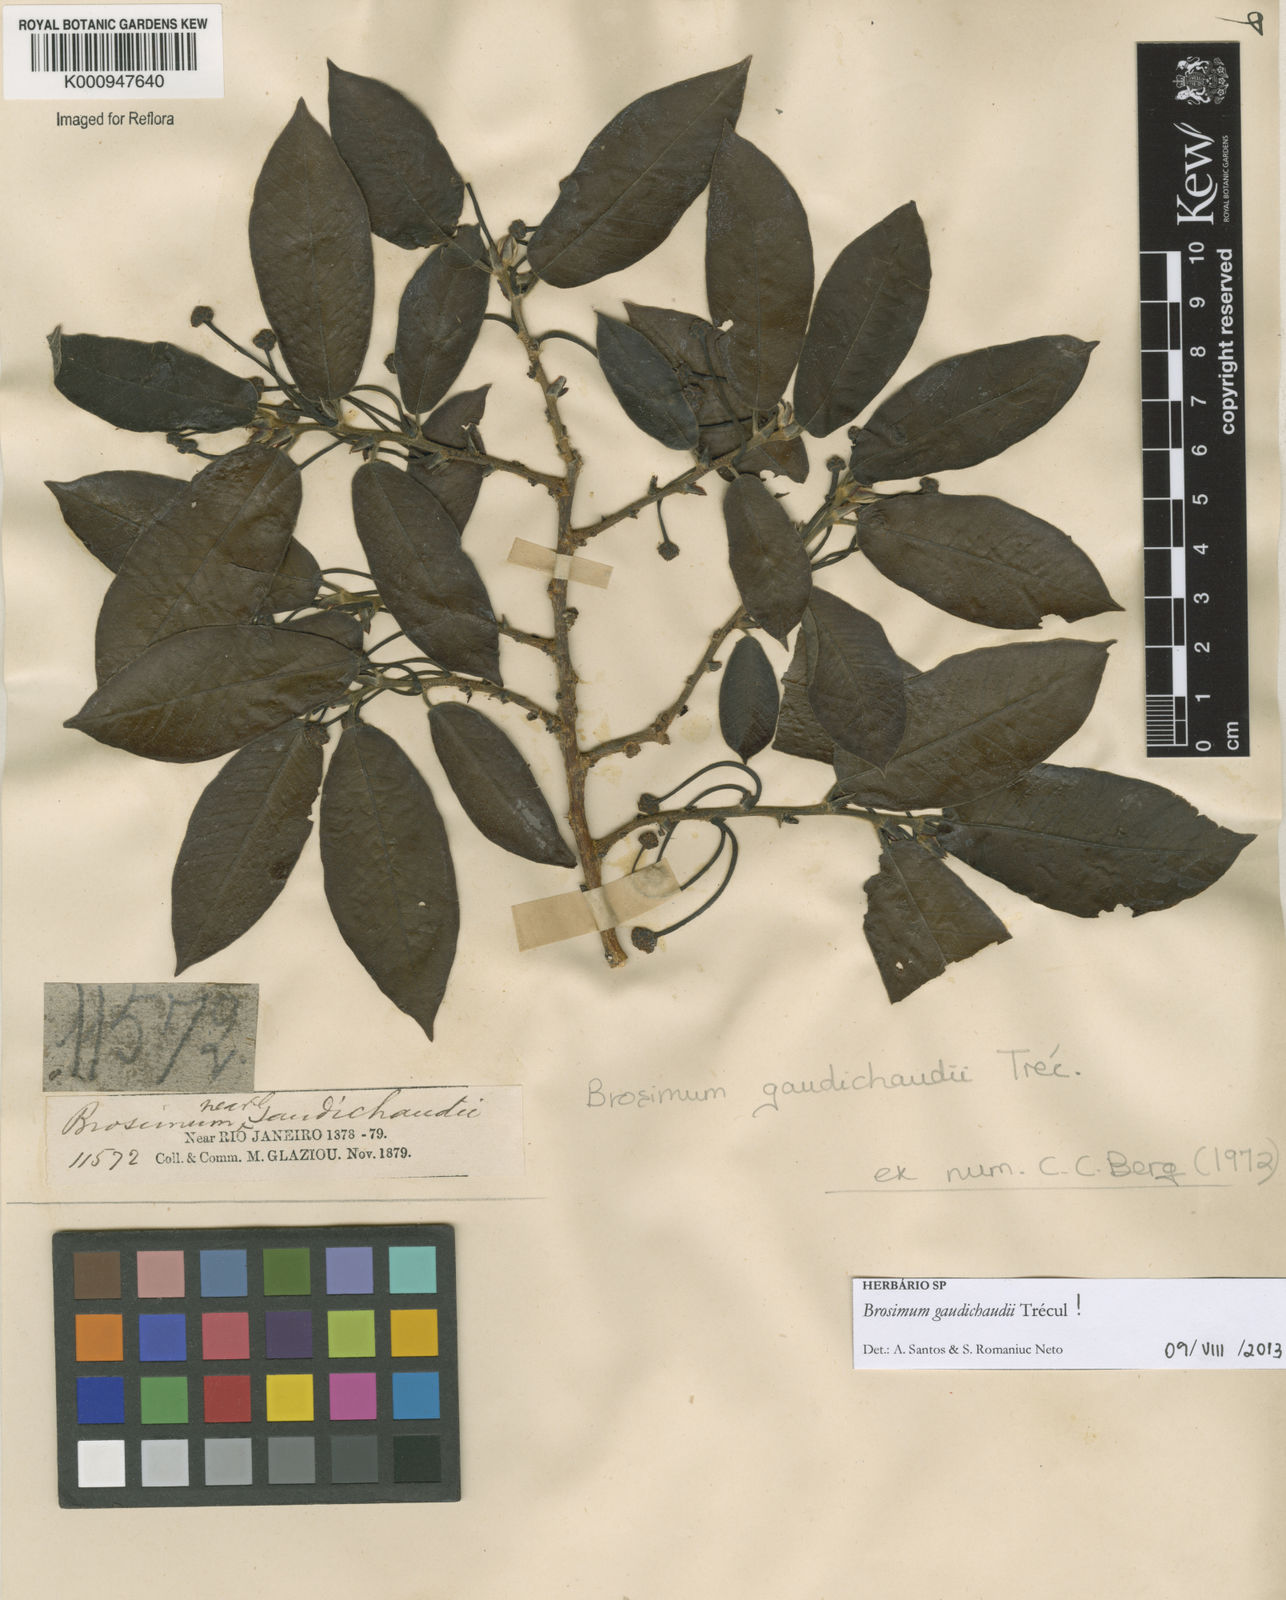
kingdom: Plantae
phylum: Tracheophyta
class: Magnoliopsida
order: Rosales
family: Moraceae
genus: Brosimum
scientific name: Brosimum
